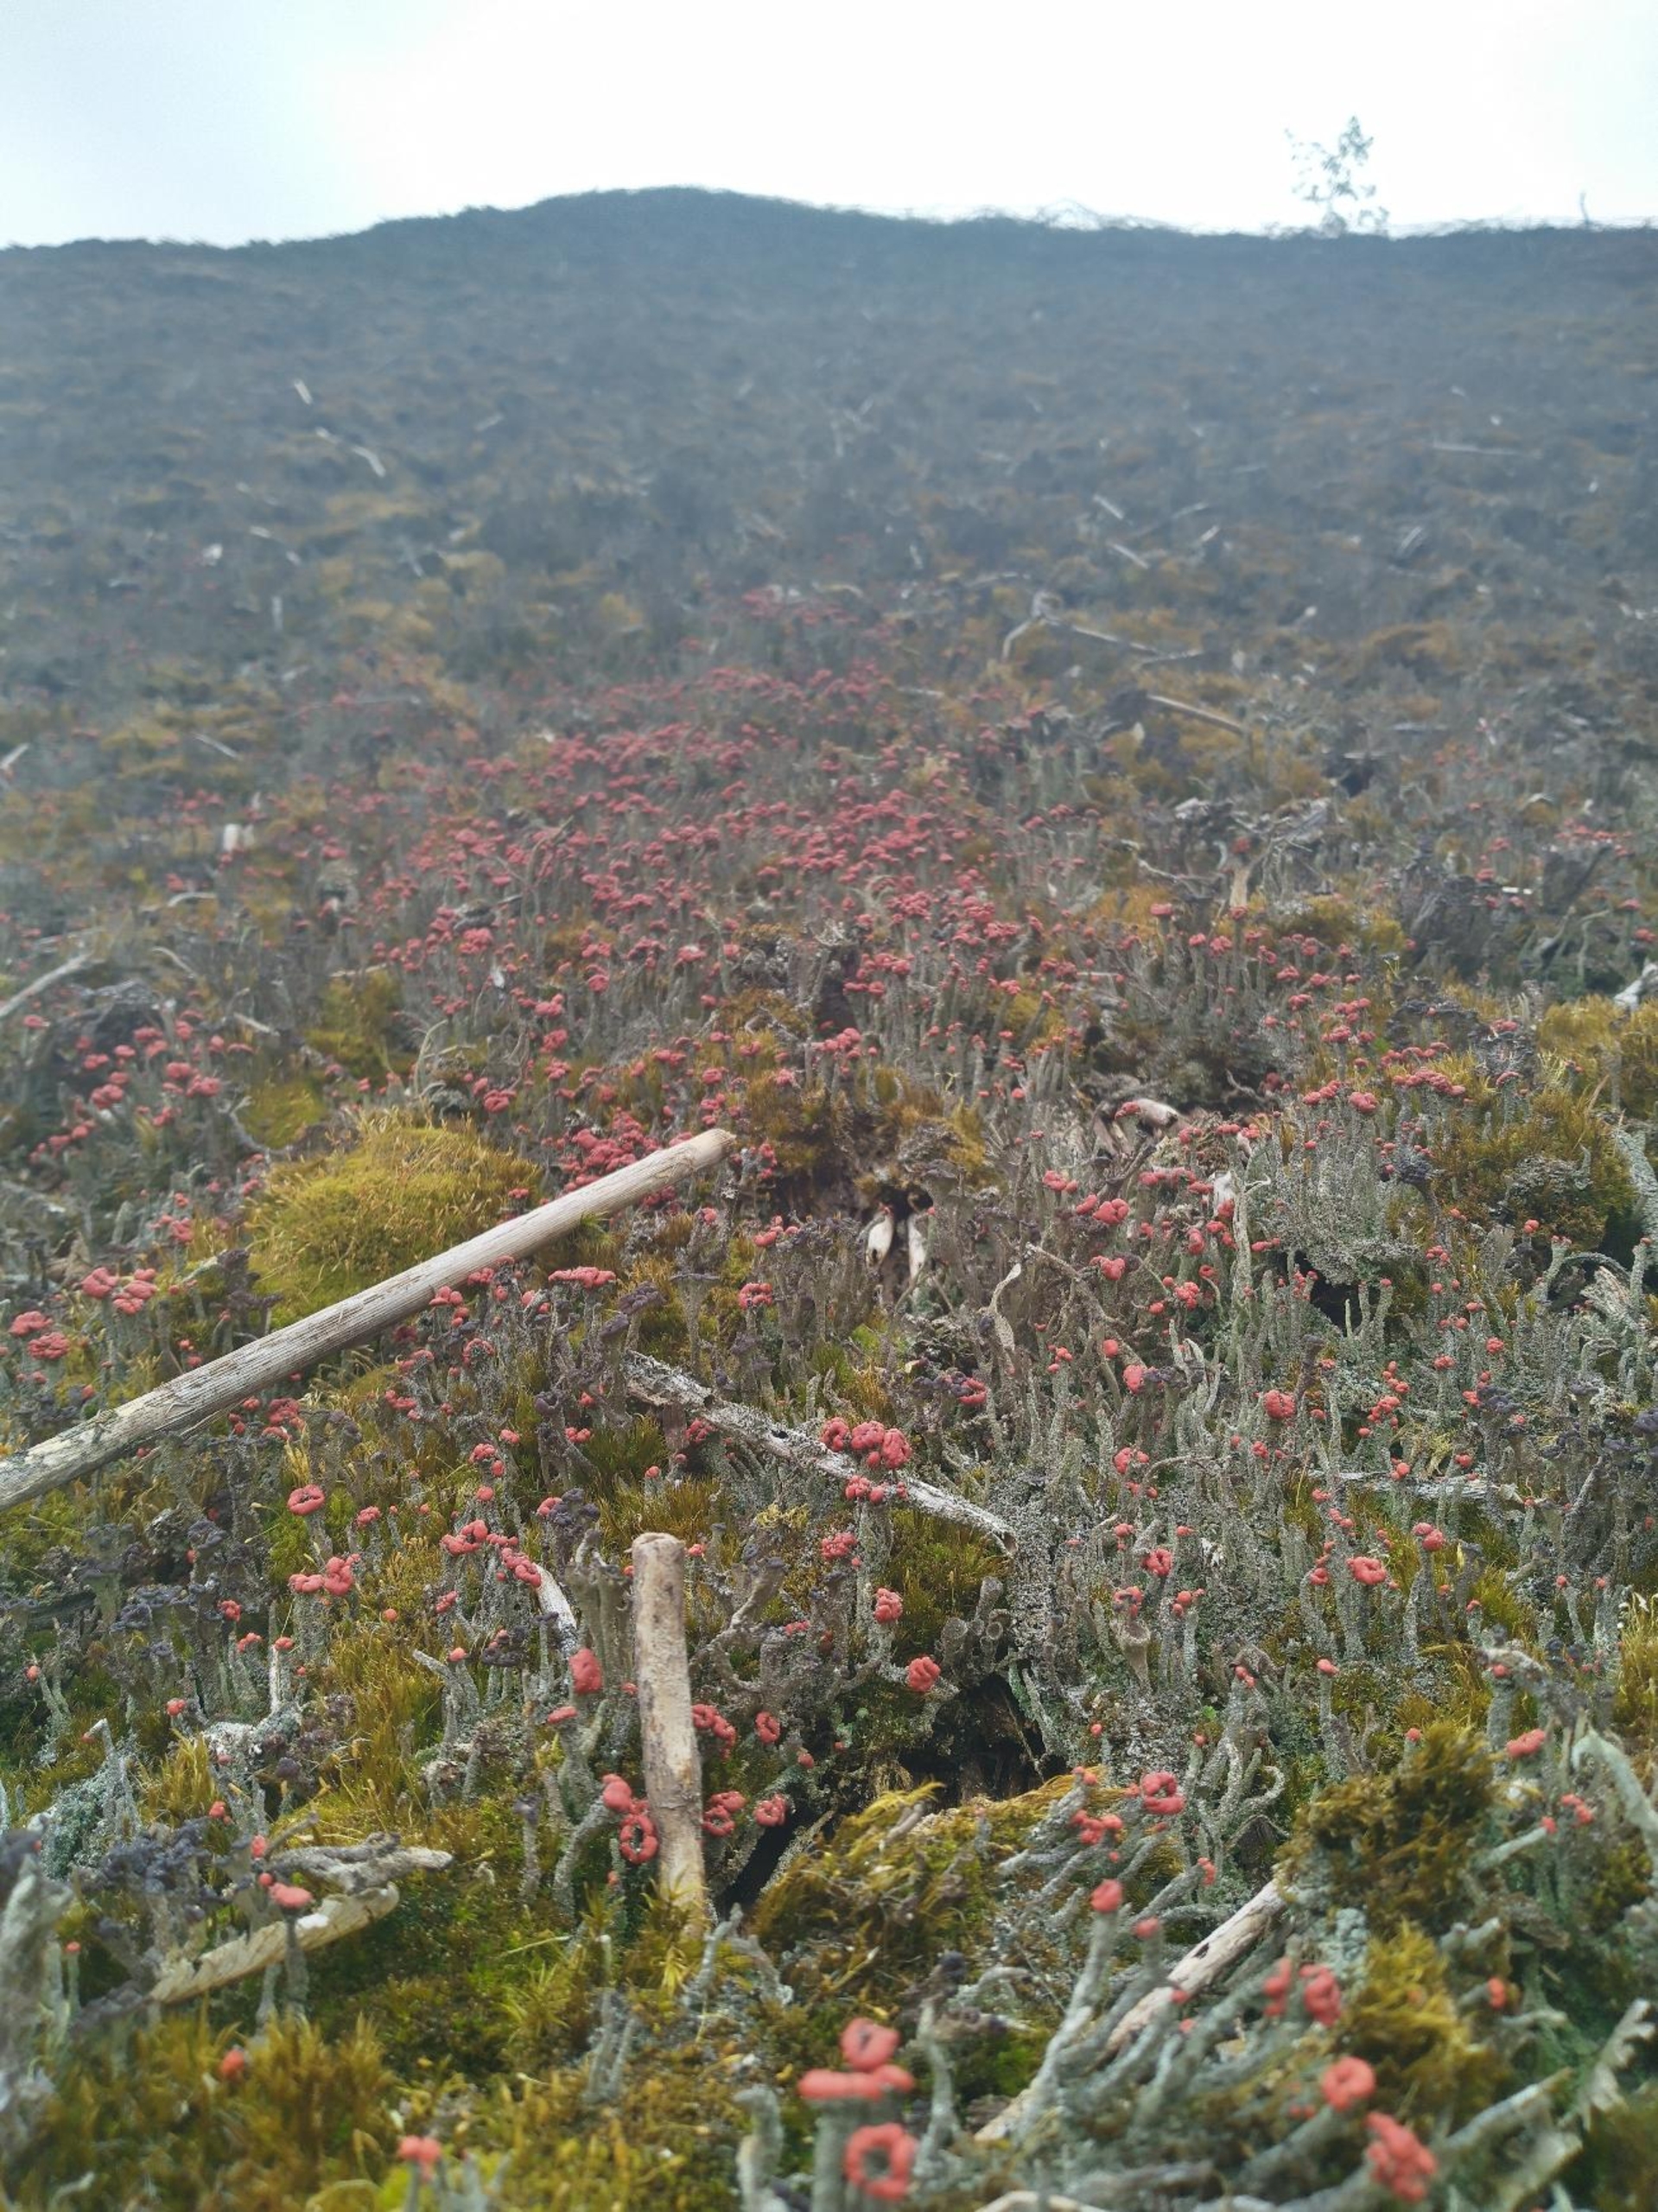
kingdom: Fungi
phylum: Ascomycota
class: Lecanoromycetes
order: Lecanorales
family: Cladoniaceae
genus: Cladonia
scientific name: Cladonia floerkeana
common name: Lakrød bægerlav
